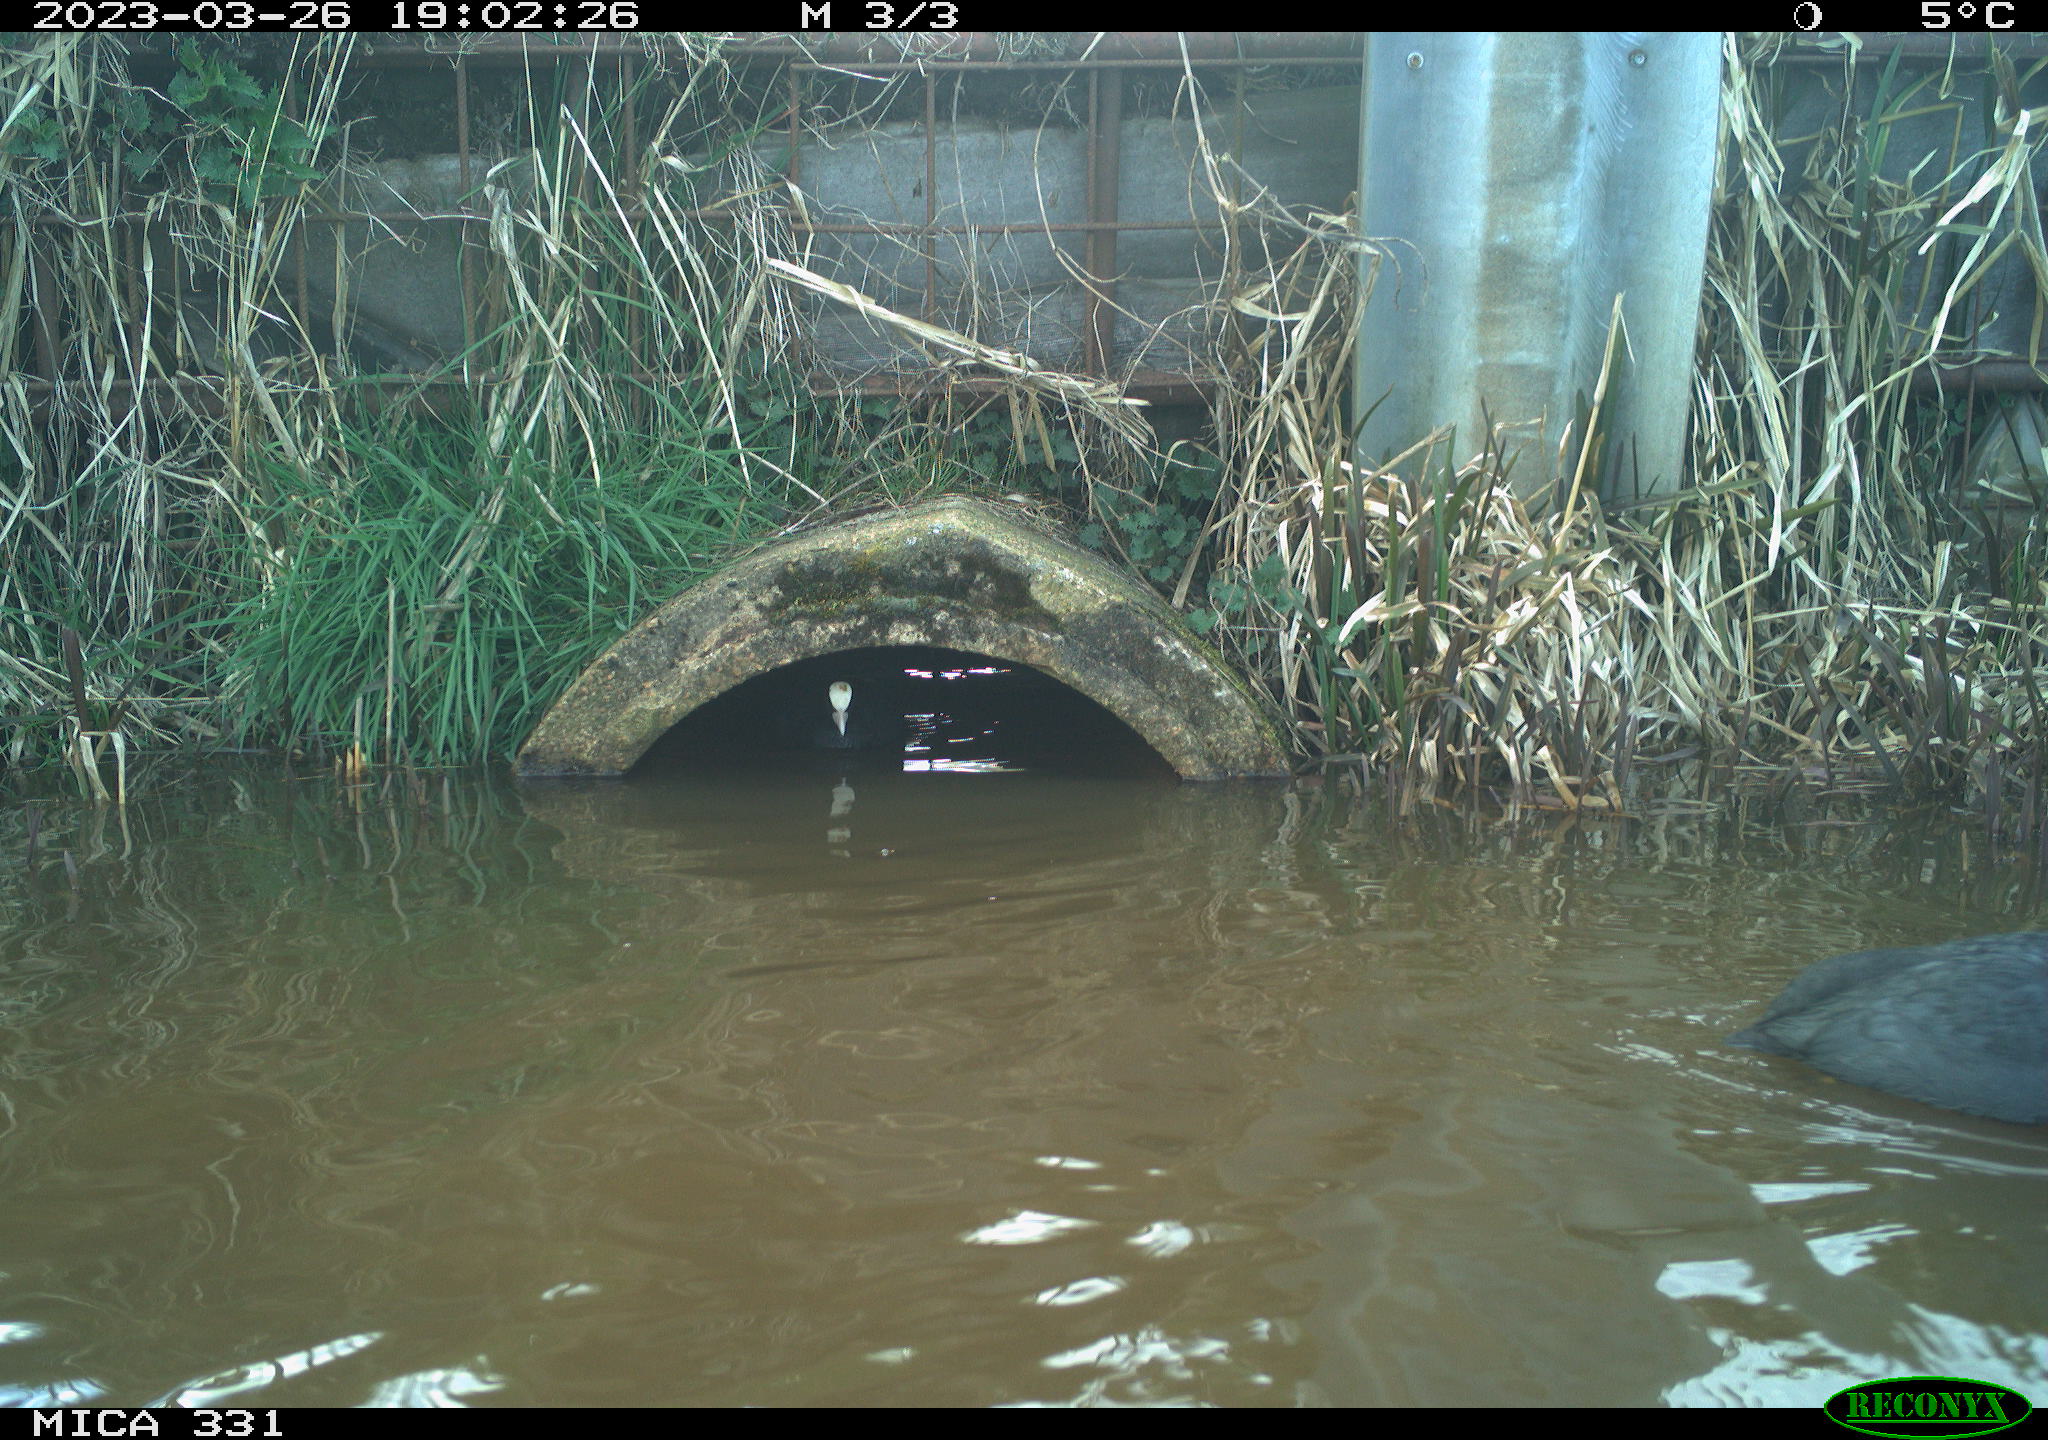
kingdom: Animalia
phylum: Chordata
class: Aves
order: Gruiformes
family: Rallidae
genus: Fulica
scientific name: Fulica atra
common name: Eurasian coot
